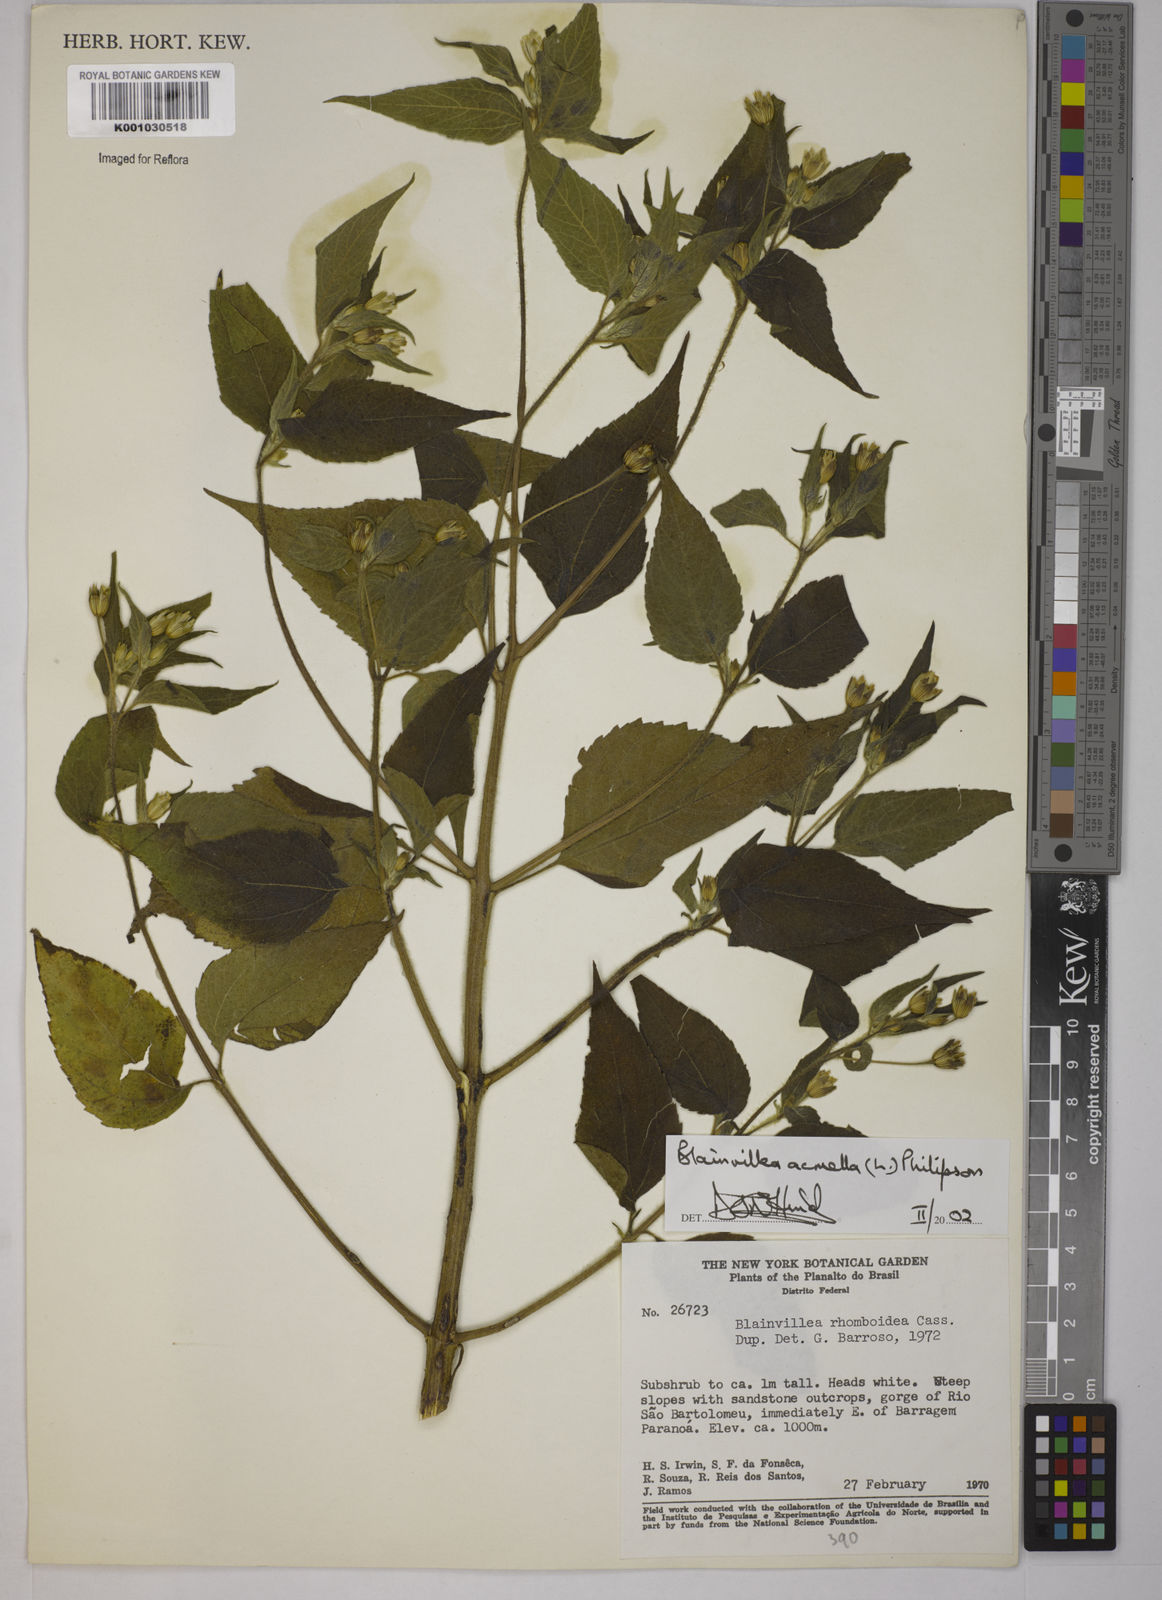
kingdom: Plantae
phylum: Tracheophyta
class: Magnoliopsida
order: Asterales
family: Asteraceae
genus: Blainvillea
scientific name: Blainvillea acmella
